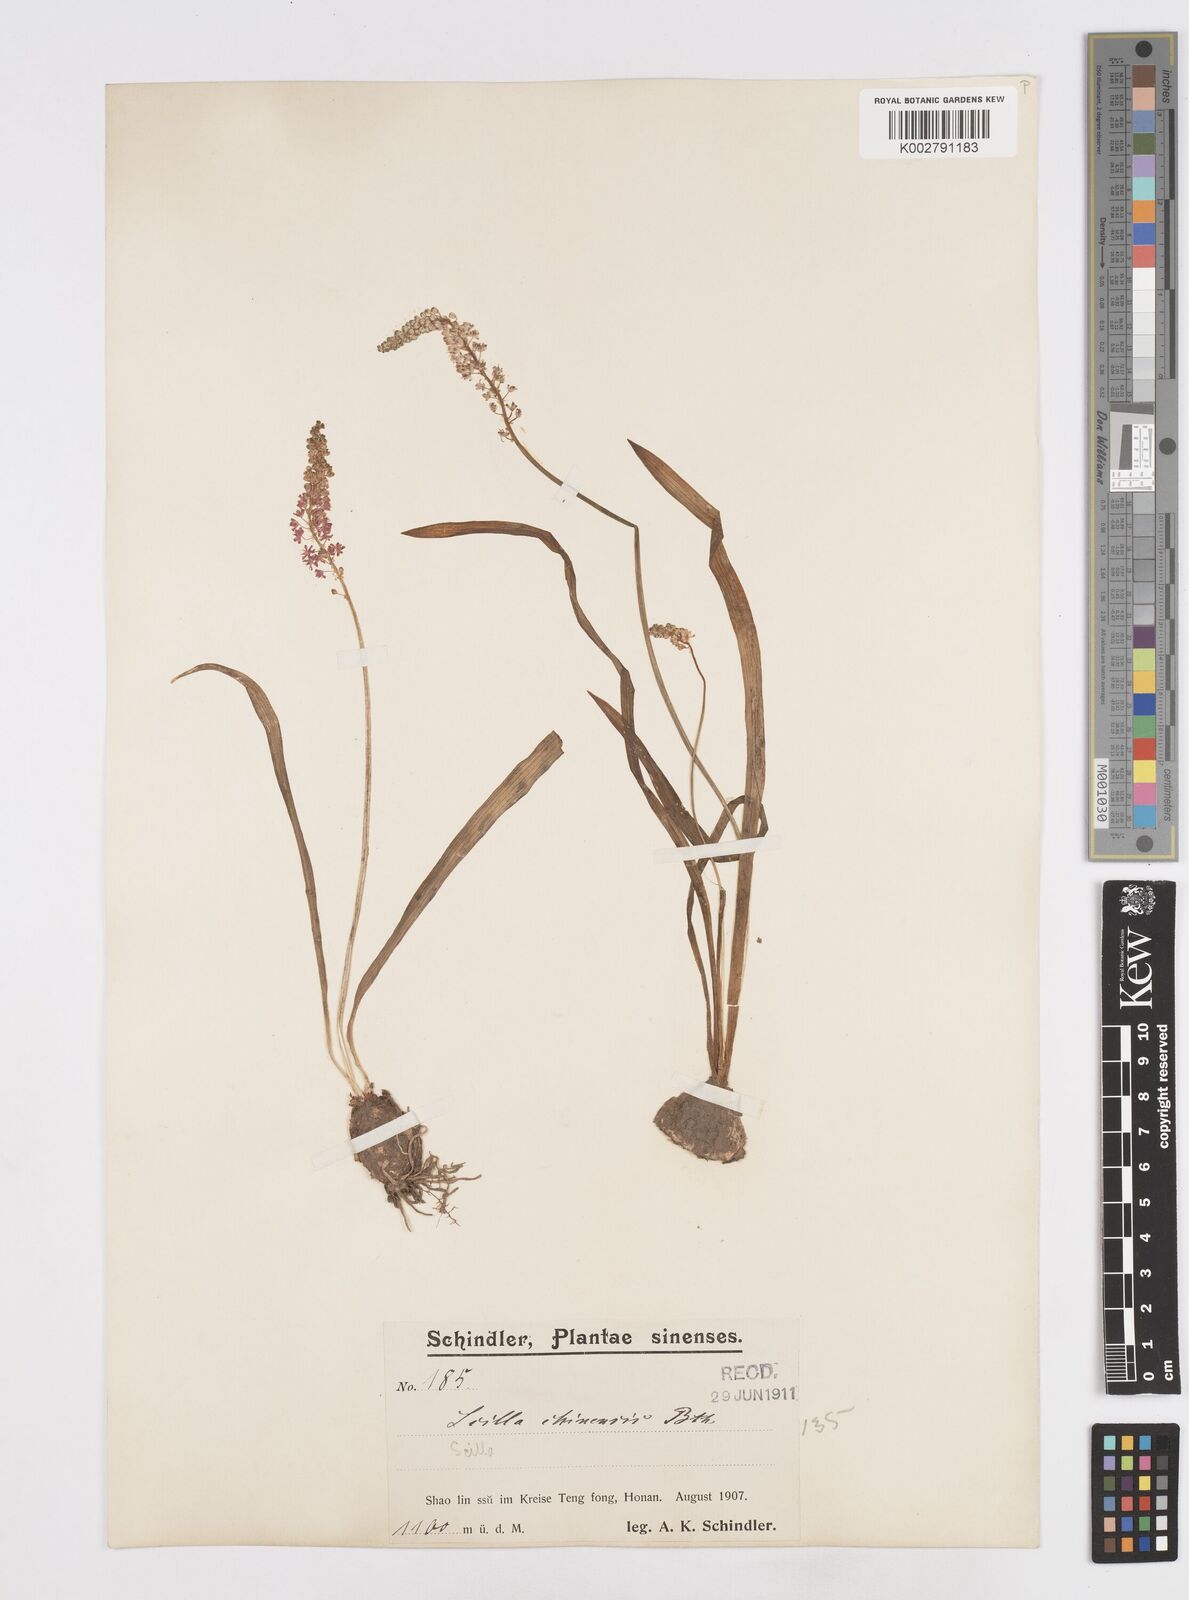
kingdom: Plantae
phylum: Tracheophyta
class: Liliopsida
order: Asparagales
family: Asparagaceae
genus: Barnardia
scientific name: Barnardia japonica
